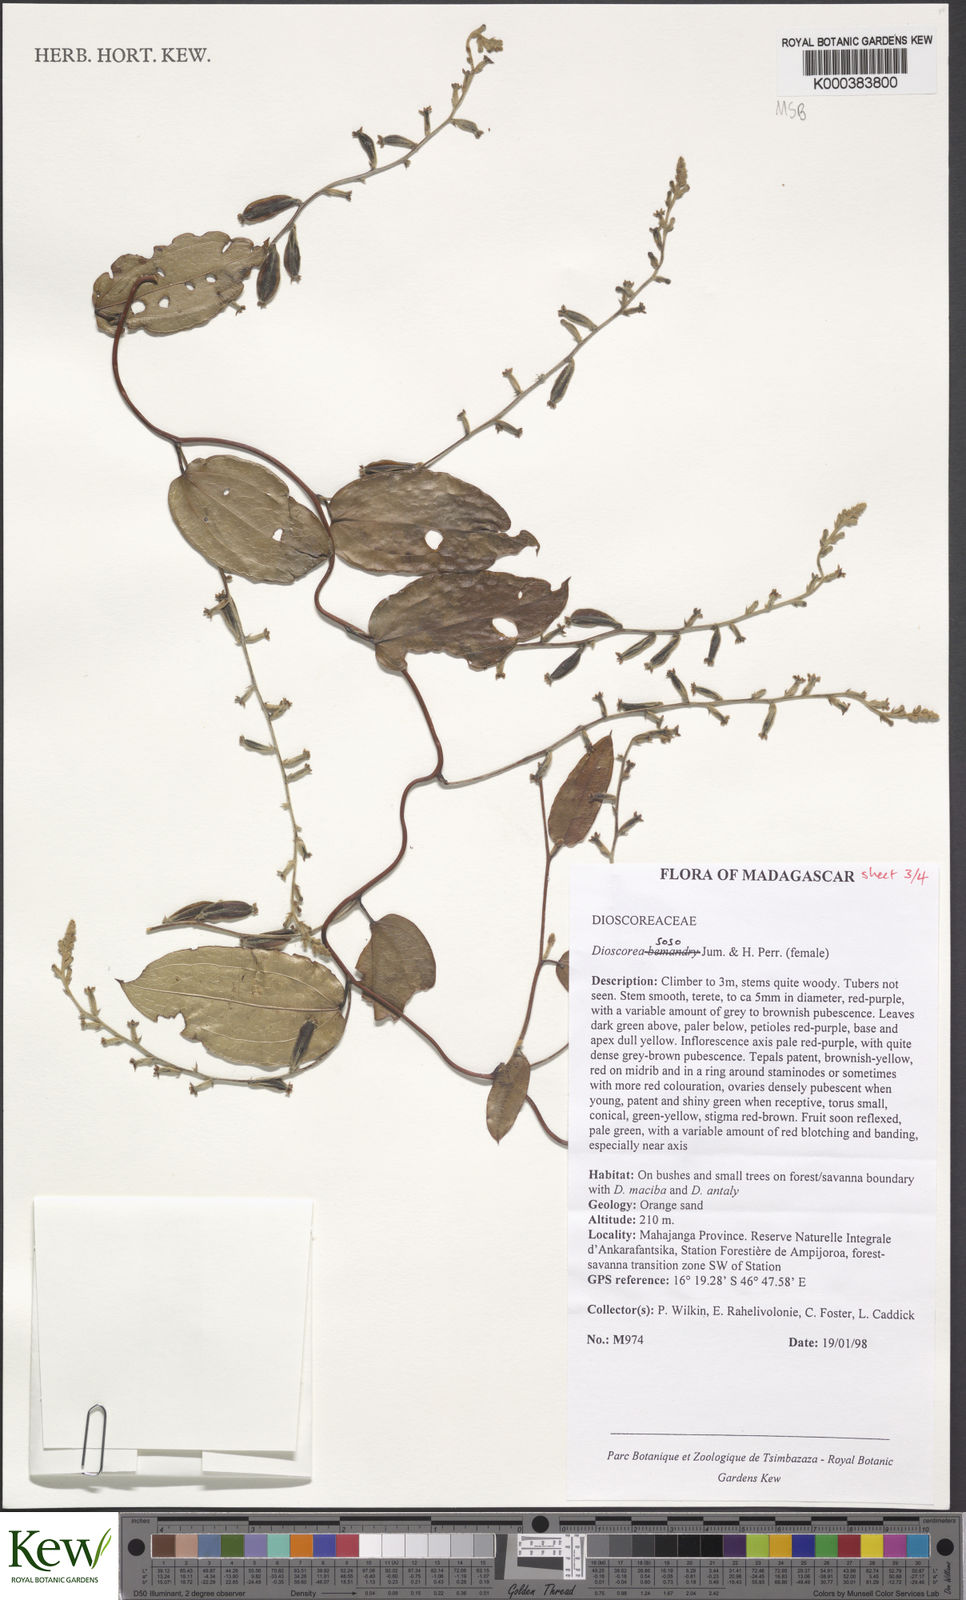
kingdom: Plantae
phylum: Tracheophyta
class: Liliopsida
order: Dioscoreales
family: Dioscoreaceae
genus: Dioscorea
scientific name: Dioscorea
